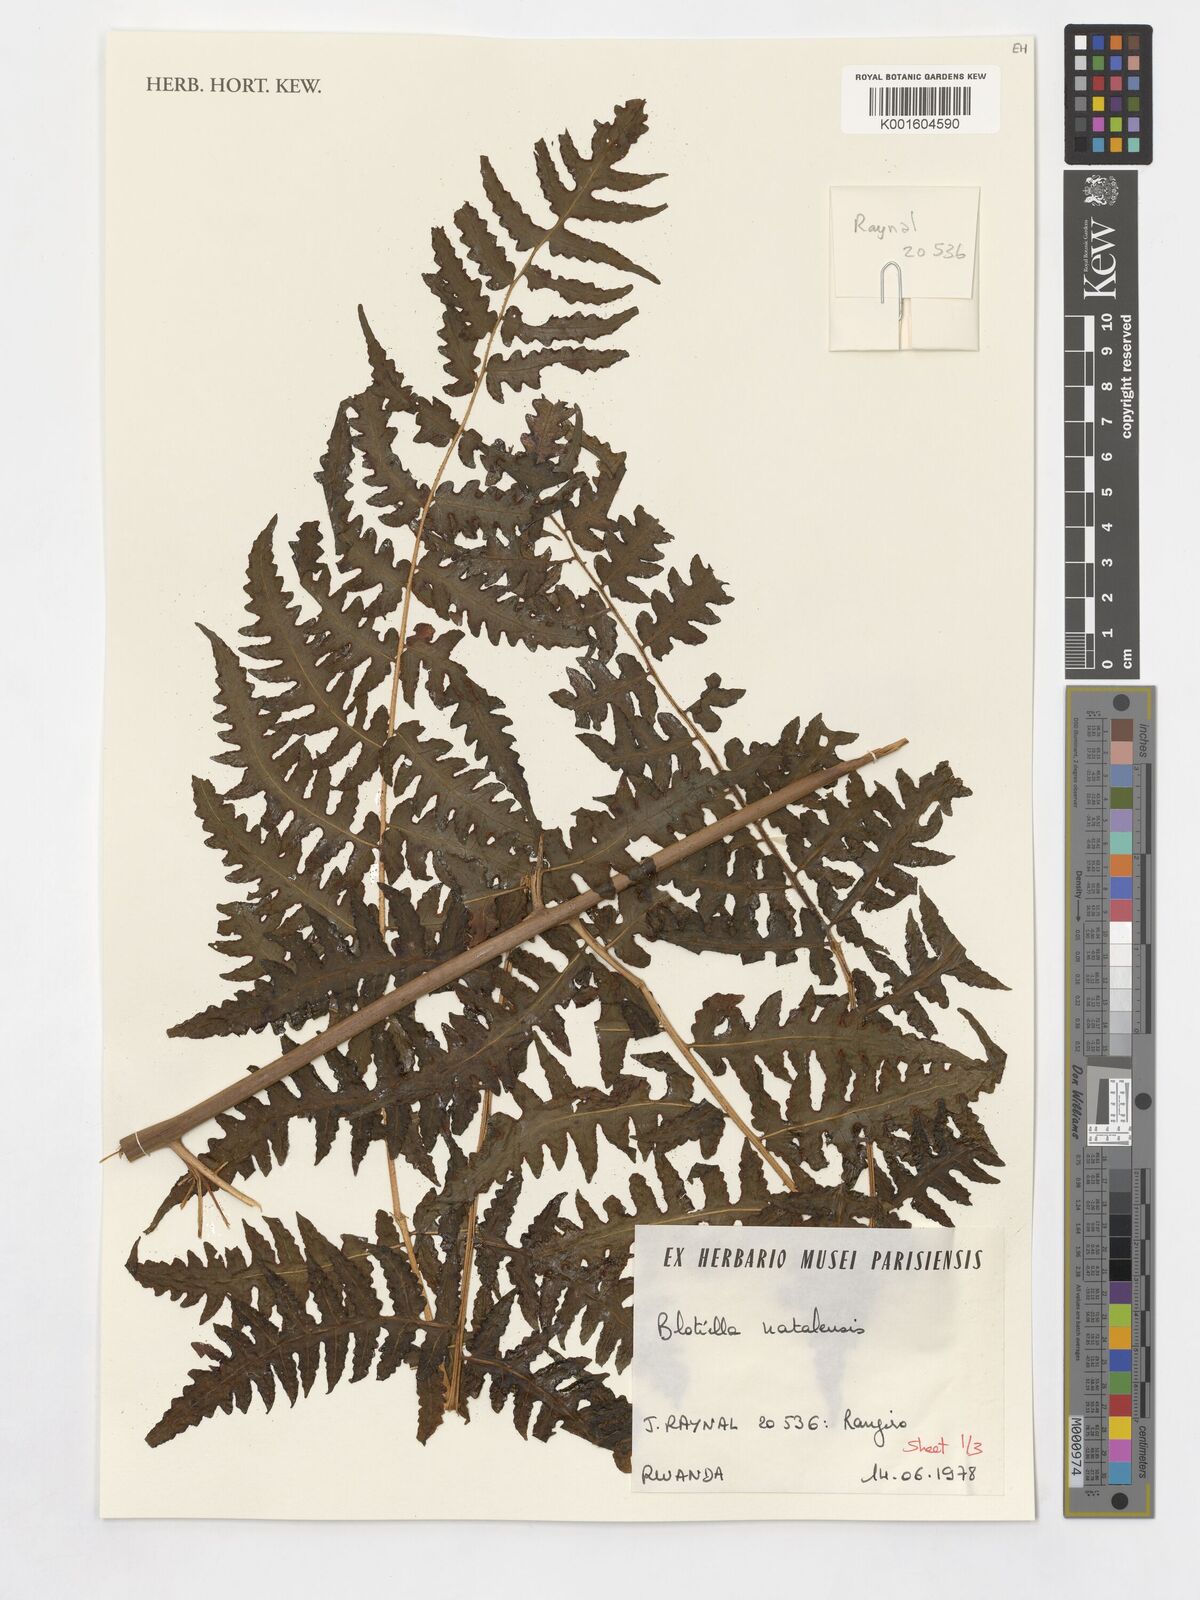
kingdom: Plantae
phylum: Tracheophyta
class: Polypodiopsida
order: Polypodiales
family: Dennstaedtiaceae
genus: Blotiella
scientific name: Blotiella natalensis
